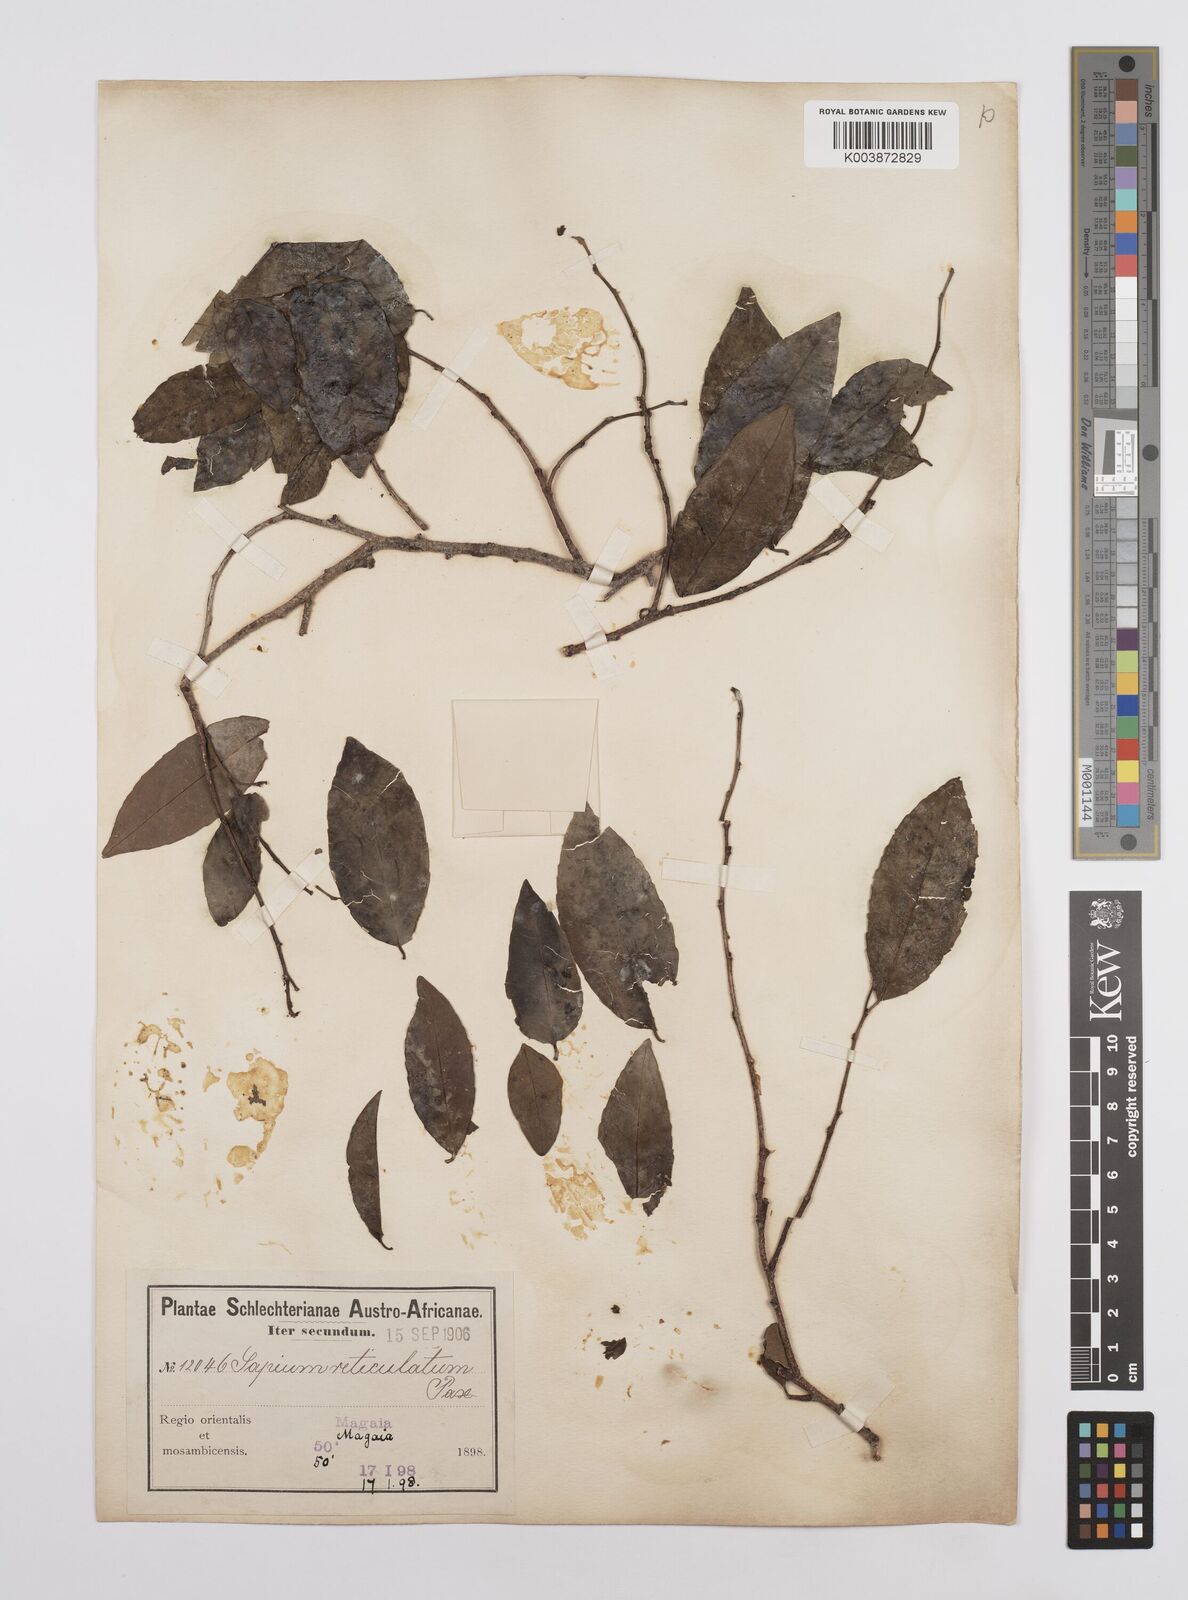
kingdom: Plantae
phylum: Tracheophyta
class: Magnoliopsida
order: Malpighiales
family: Euphorbiaceae
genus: Sclerocroton
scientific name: Sclerocroton integerrimus
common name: Duiker berry
